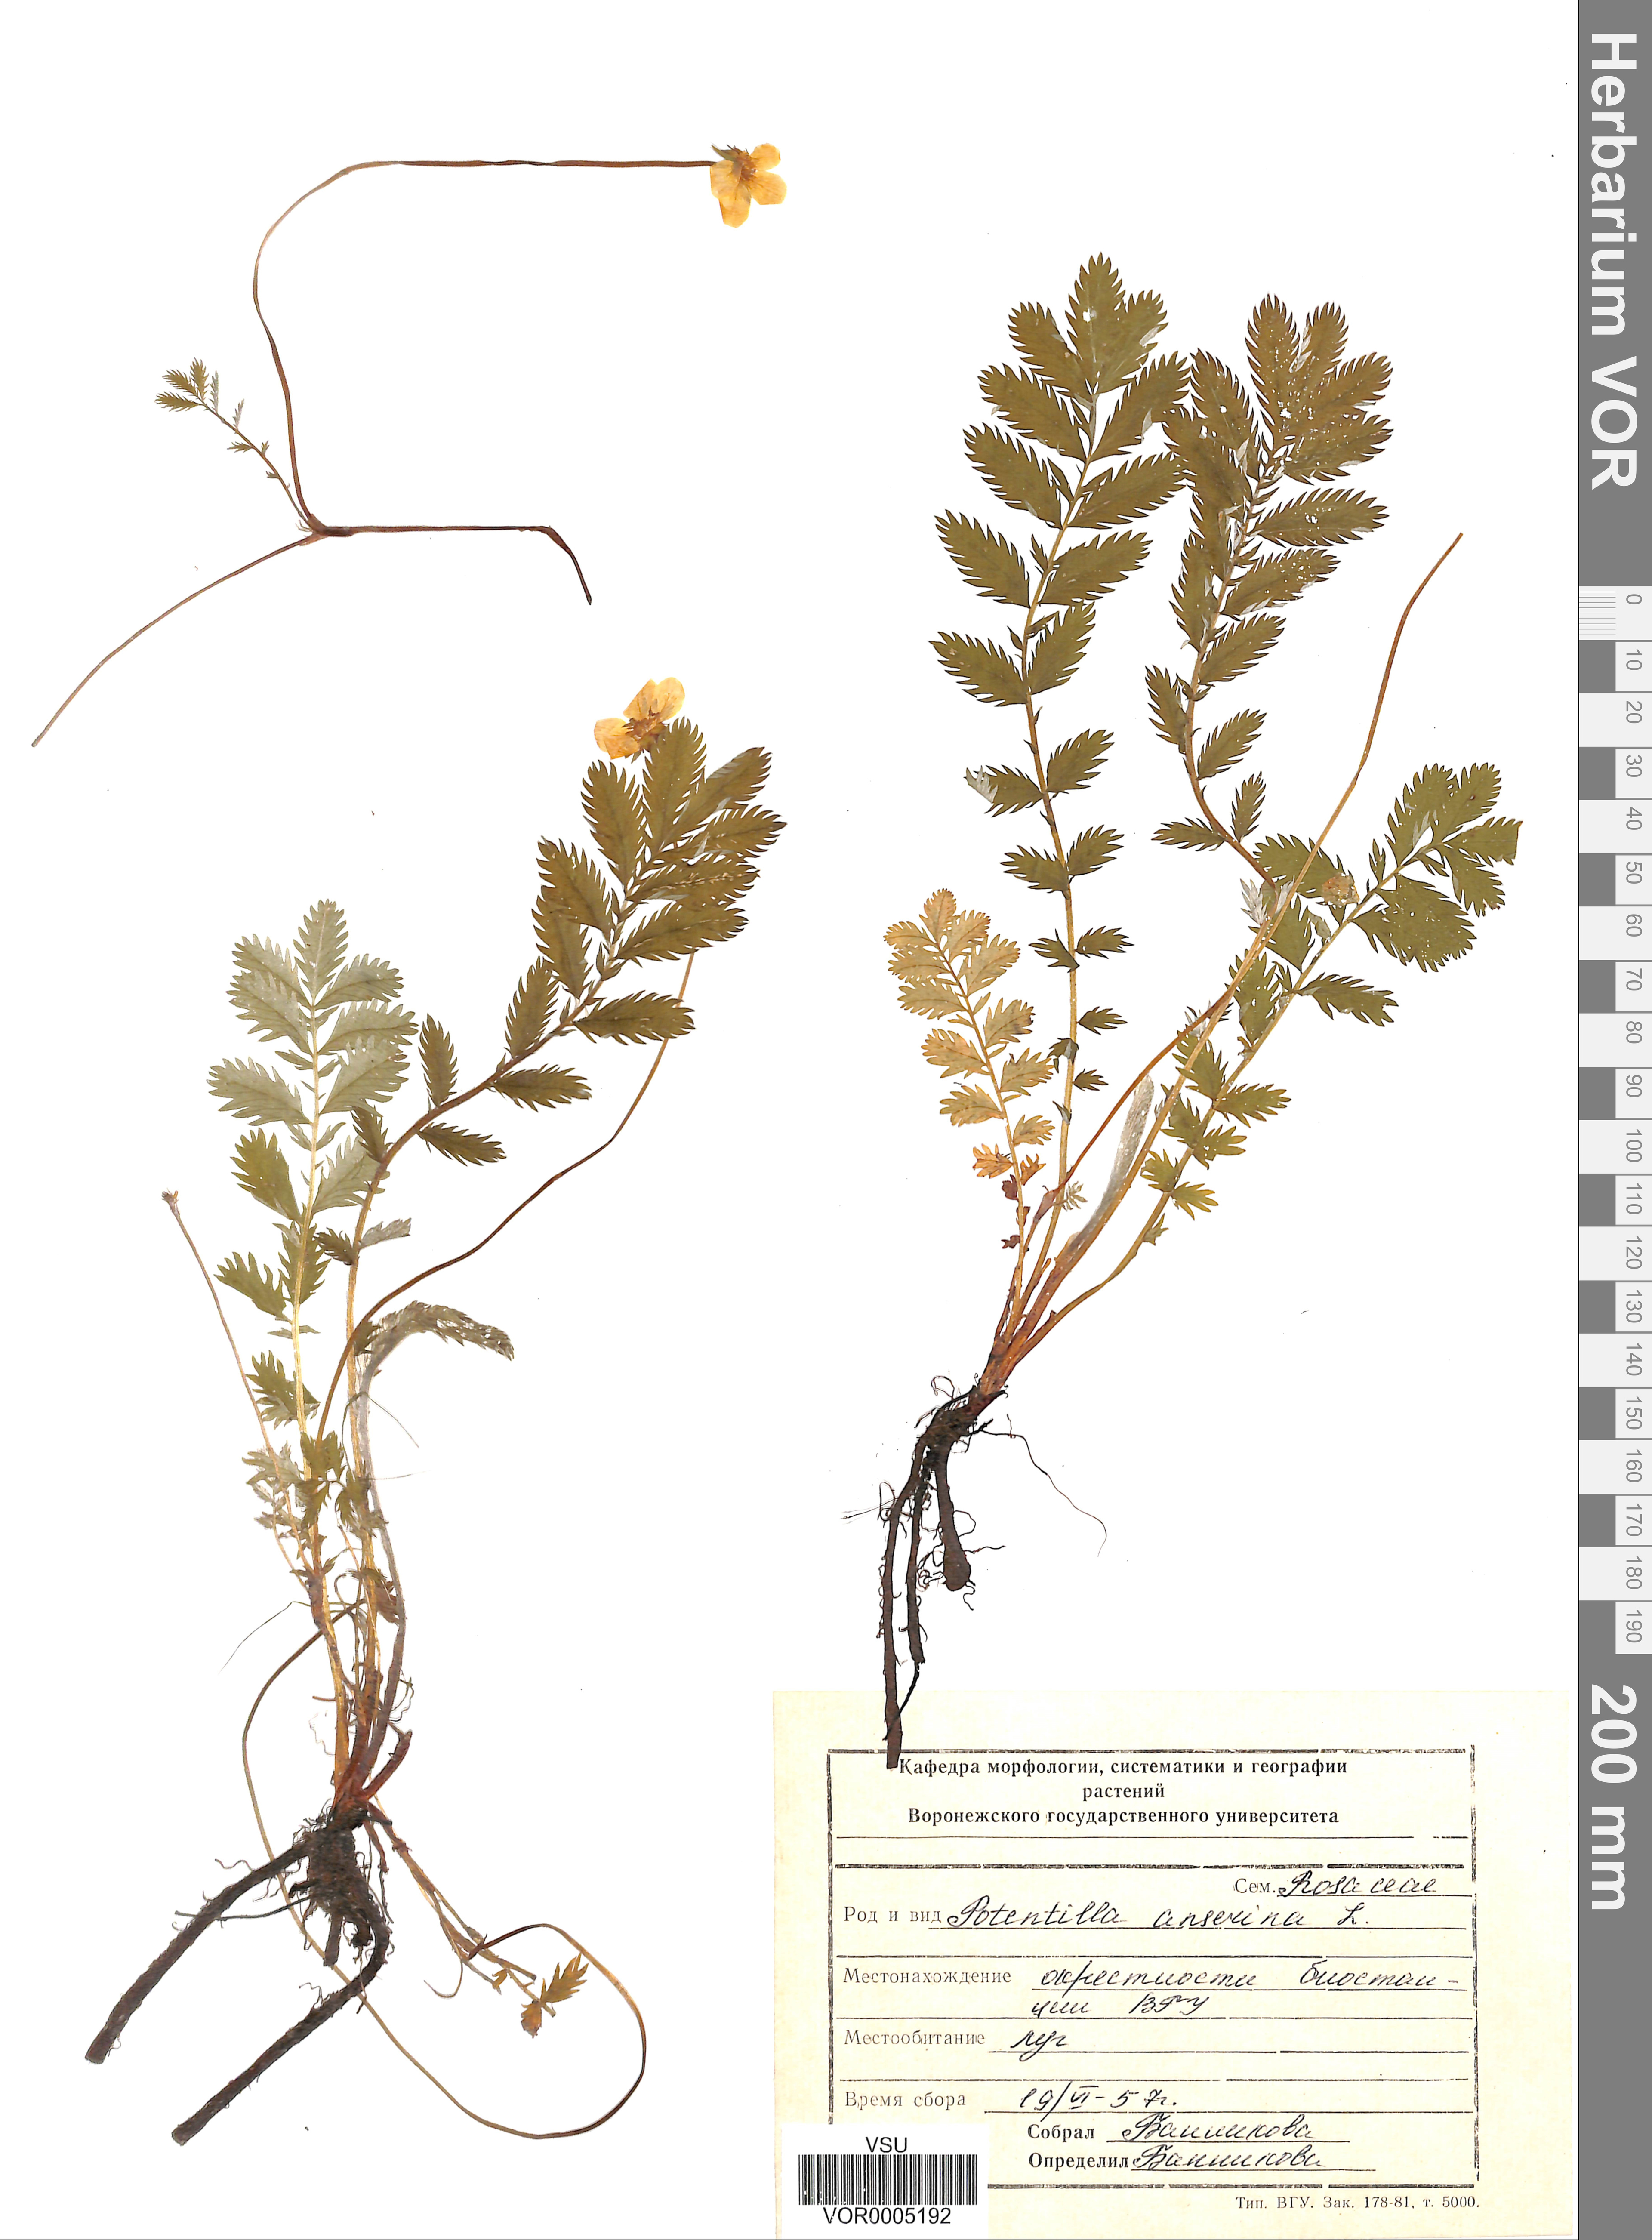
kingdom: Plantae
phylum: Tracheophyta
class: Magnoliopsida
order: Rosales
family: Rosaceae
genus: Argentina
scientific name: Argentina anserina
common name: Common silverweed
